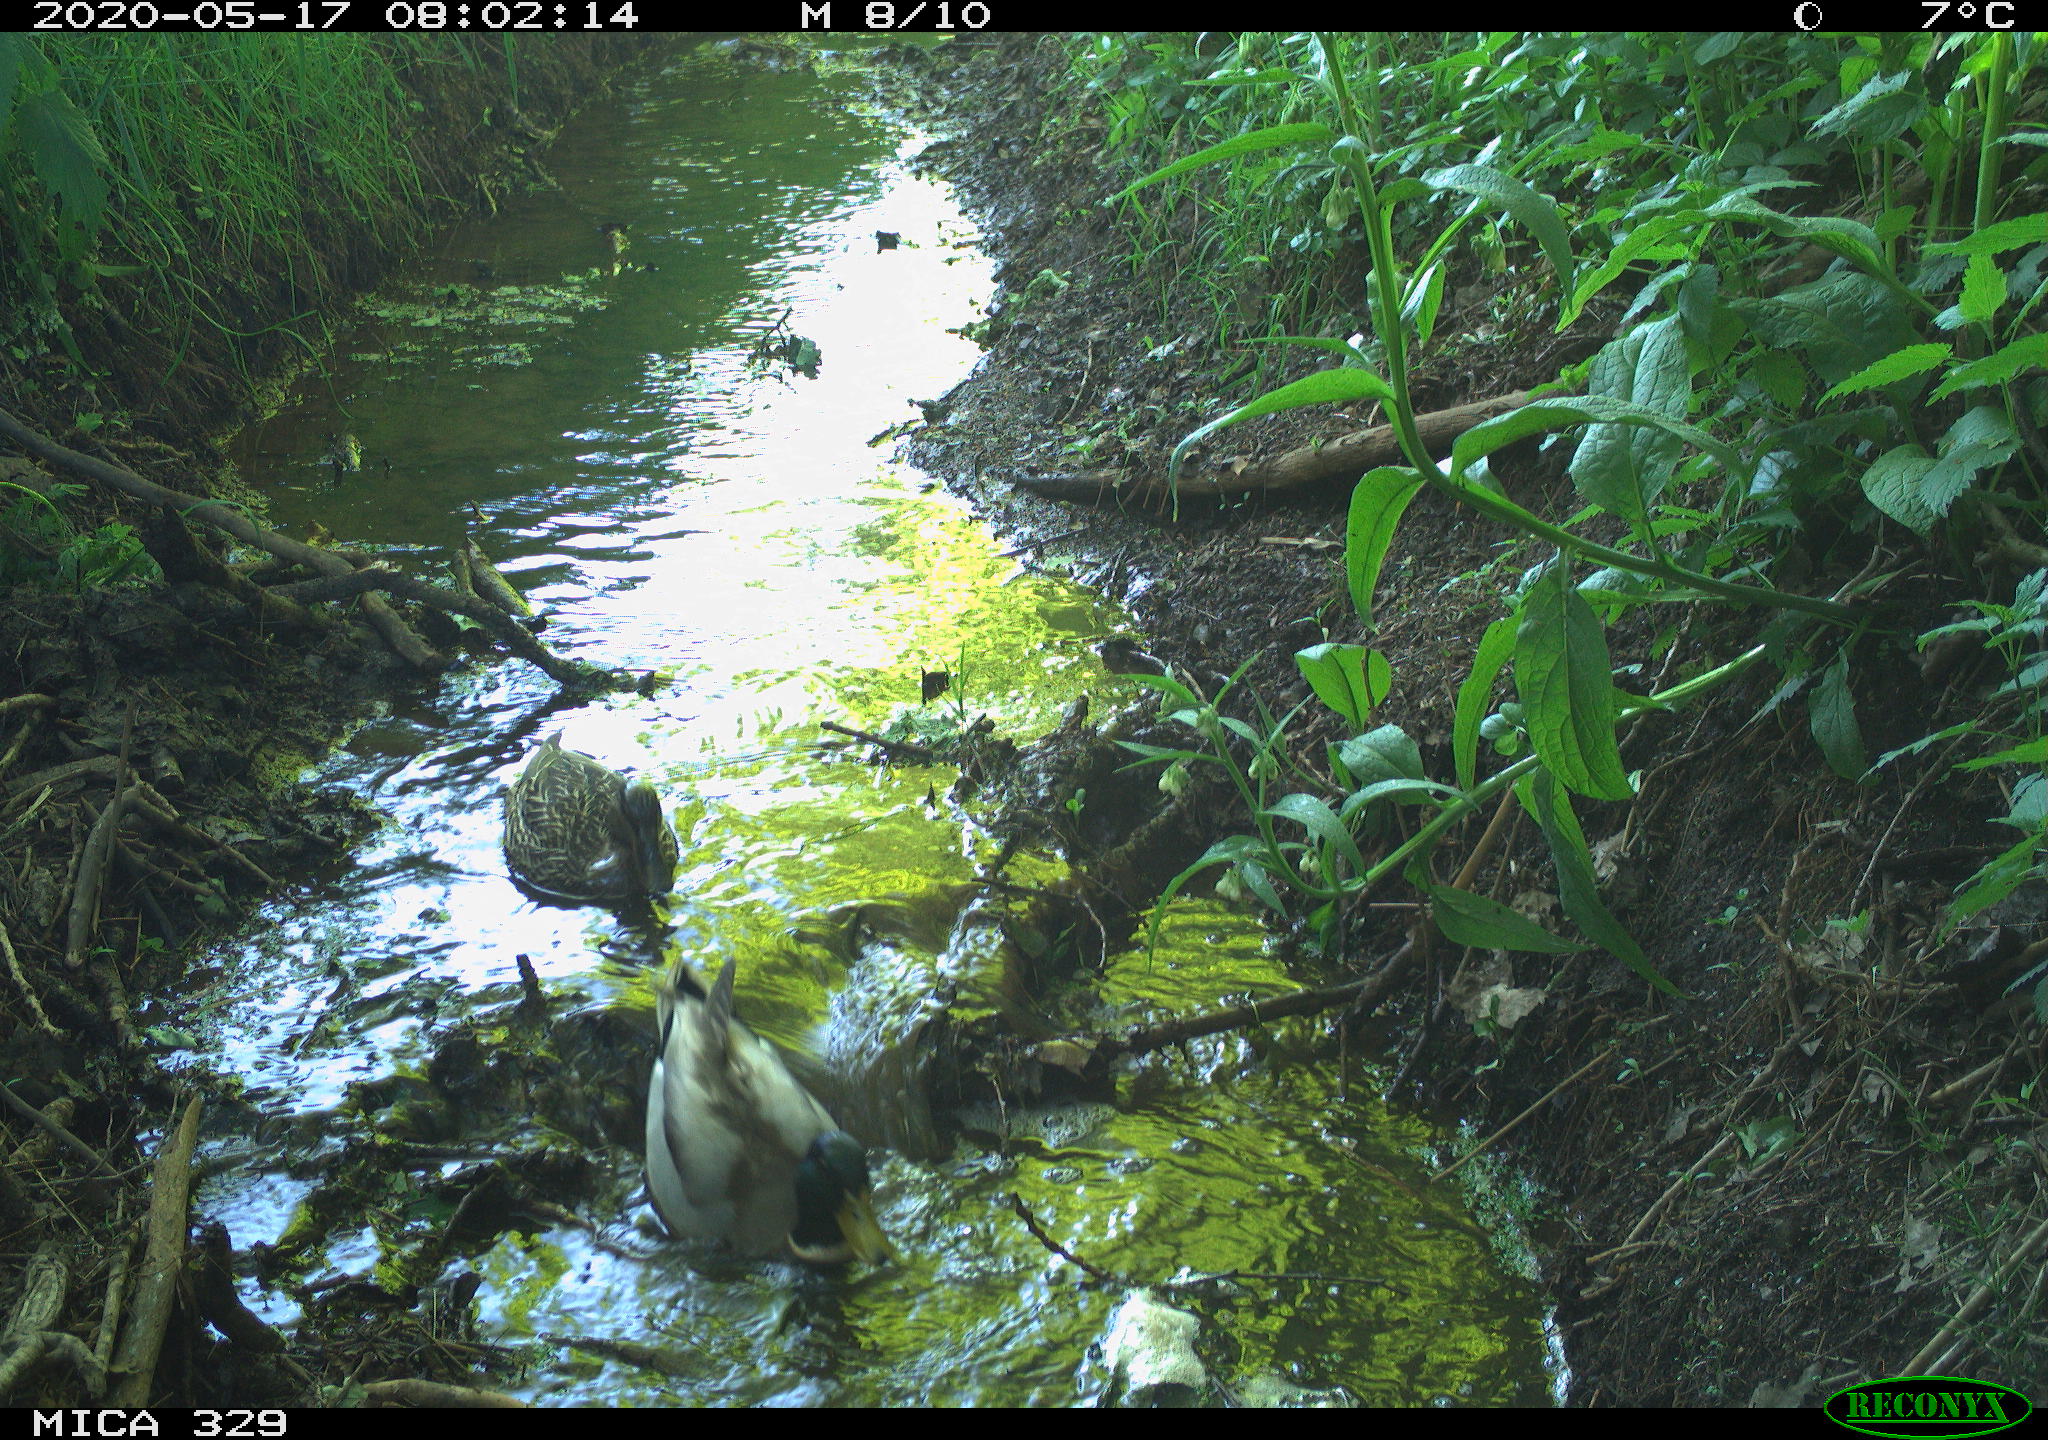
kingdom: Animalia
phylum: Chordata
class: Aves
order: Anseriformes
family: Anatidae
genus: Anas
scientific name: Anas platyrhynchos
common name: Mallard
